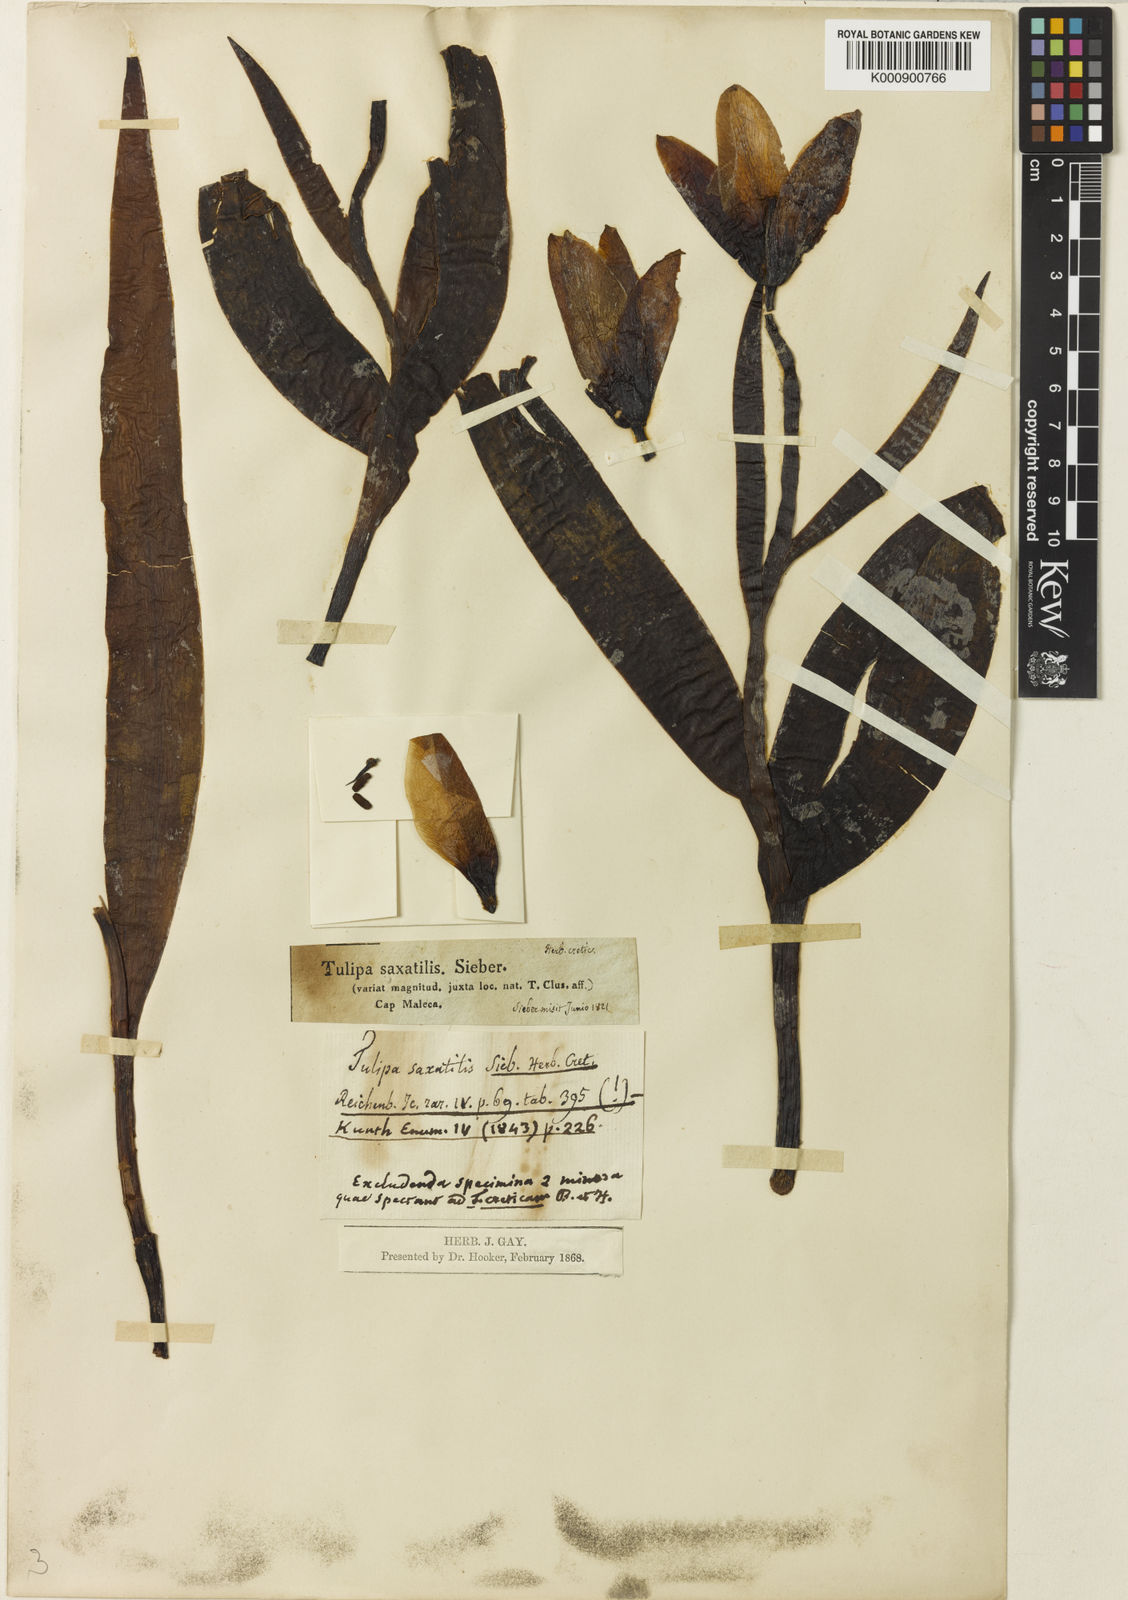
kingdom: Plantae
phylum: Tracheophyta
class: Liliopsida
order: Liliales
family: Liliaceae
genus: Tulipa
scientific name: Tulipa saxatilis
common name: Cretan tulip
